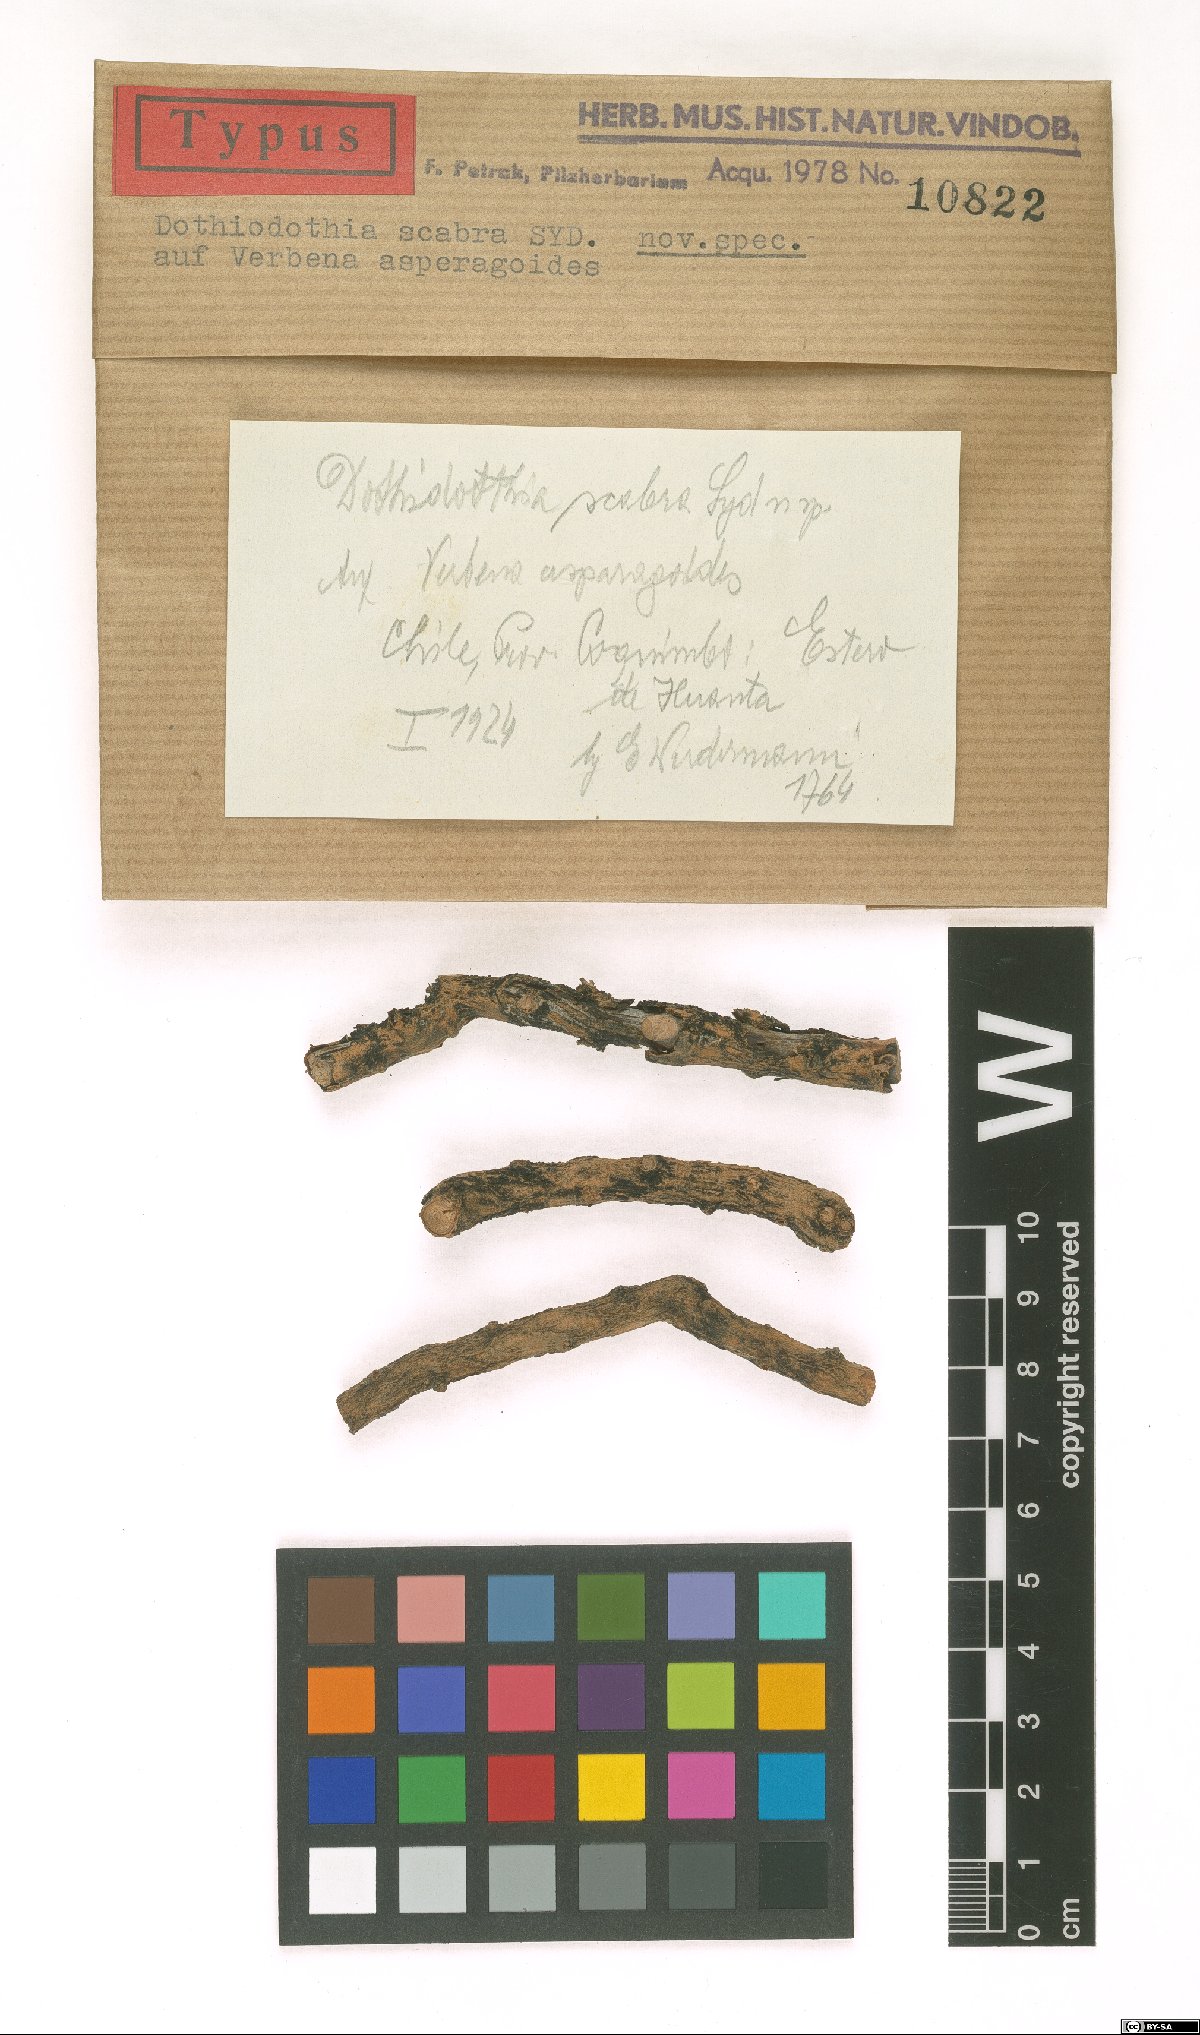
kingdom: Fungi
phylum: Ascomycota
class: Dothideomycetes
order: Pleosporales
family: Dothidotthiaceae
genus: Dothidotthia
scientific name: Dothidotthia scabra
